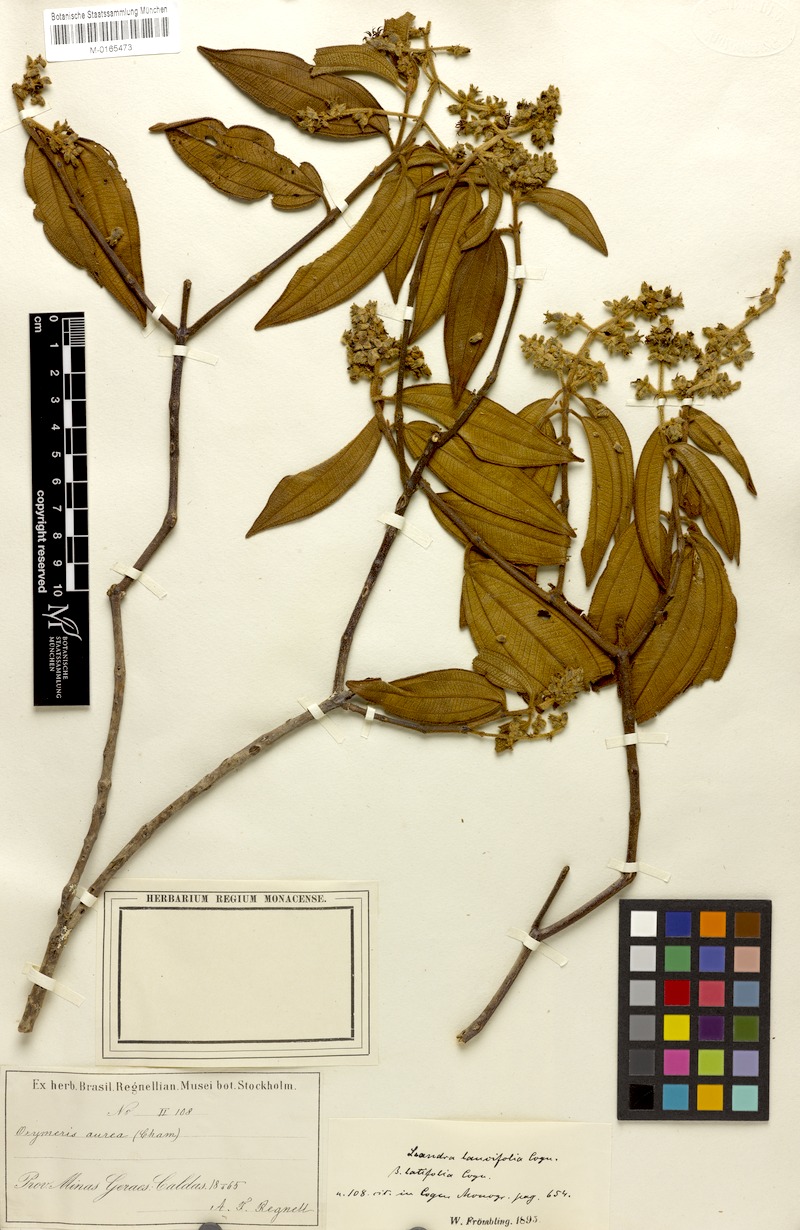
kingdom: Plantae
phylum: Tracheophyta
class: Magnoliopsida
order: Myrtales
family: Melastomataceae
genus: Miconia
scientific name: Miconia lealancifolia
